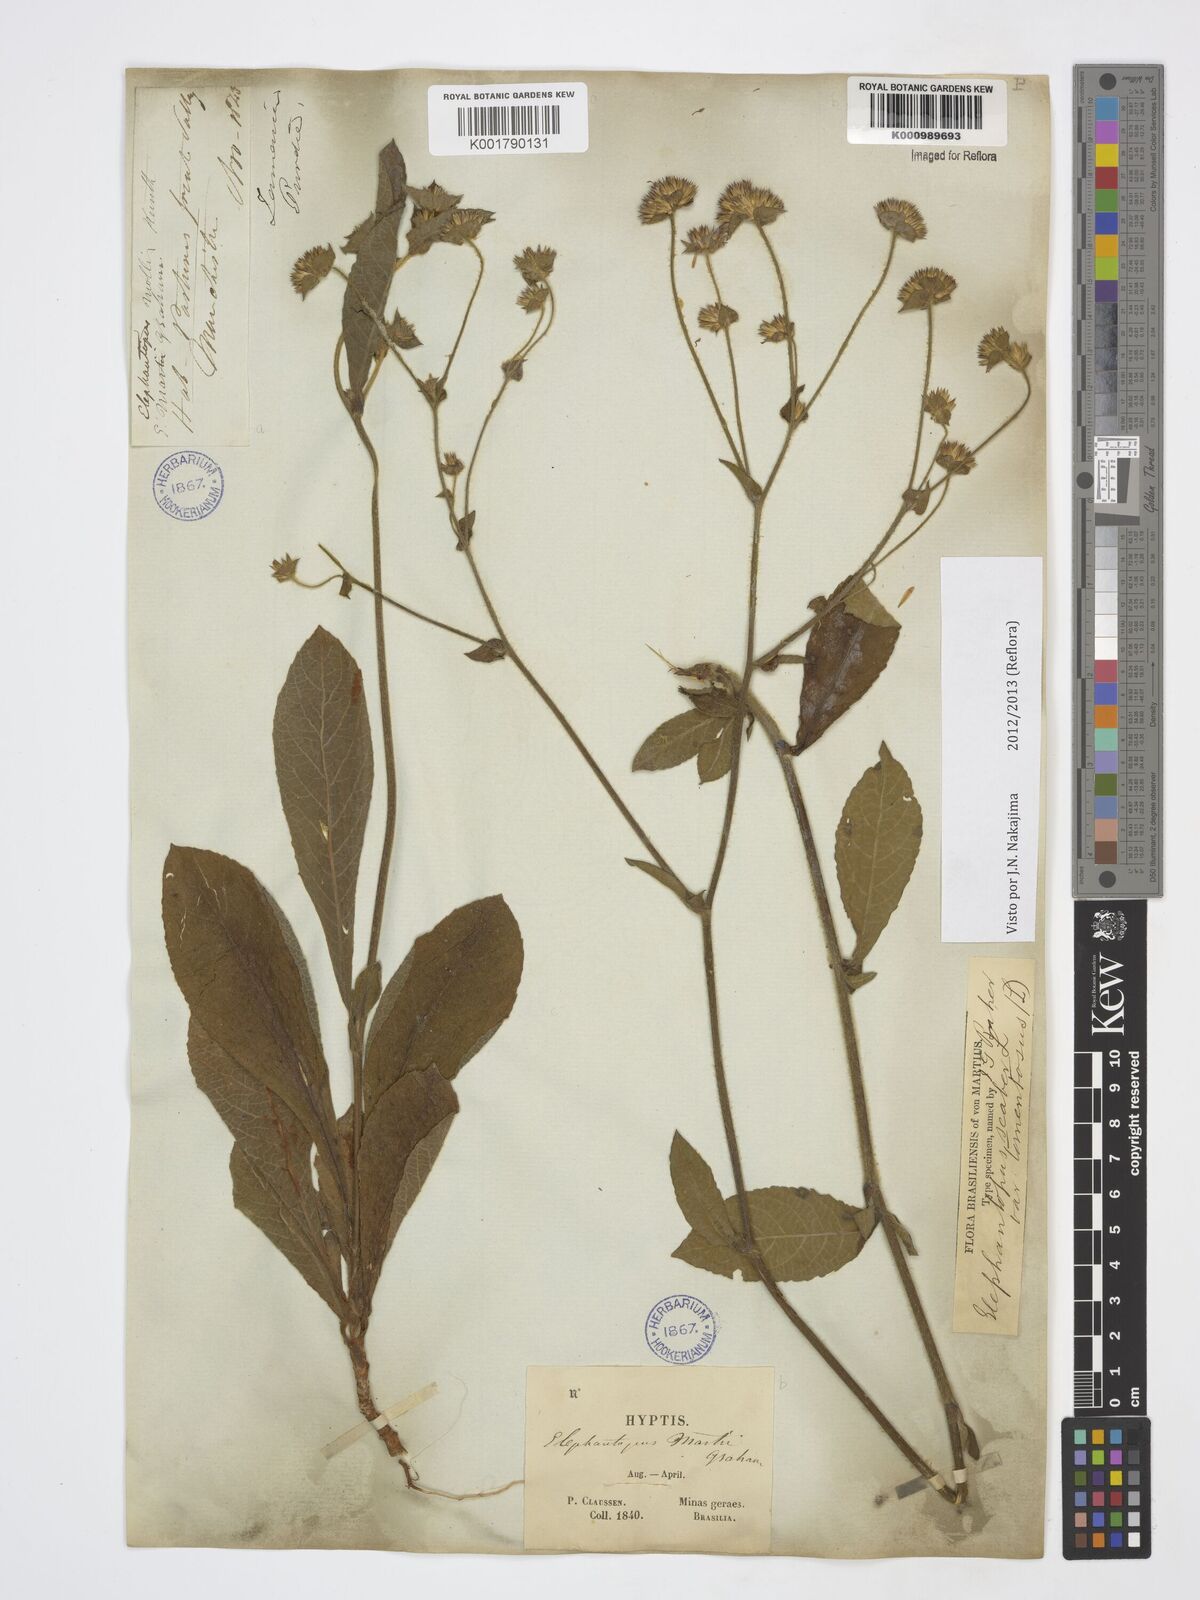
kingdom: Plantae
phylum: Tracheophyta
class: Magnoliopsida
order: Asterales
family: Asteraceae
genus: Elephantopus
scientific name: Elephantopus mollis
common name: Soft elephantsfoot
